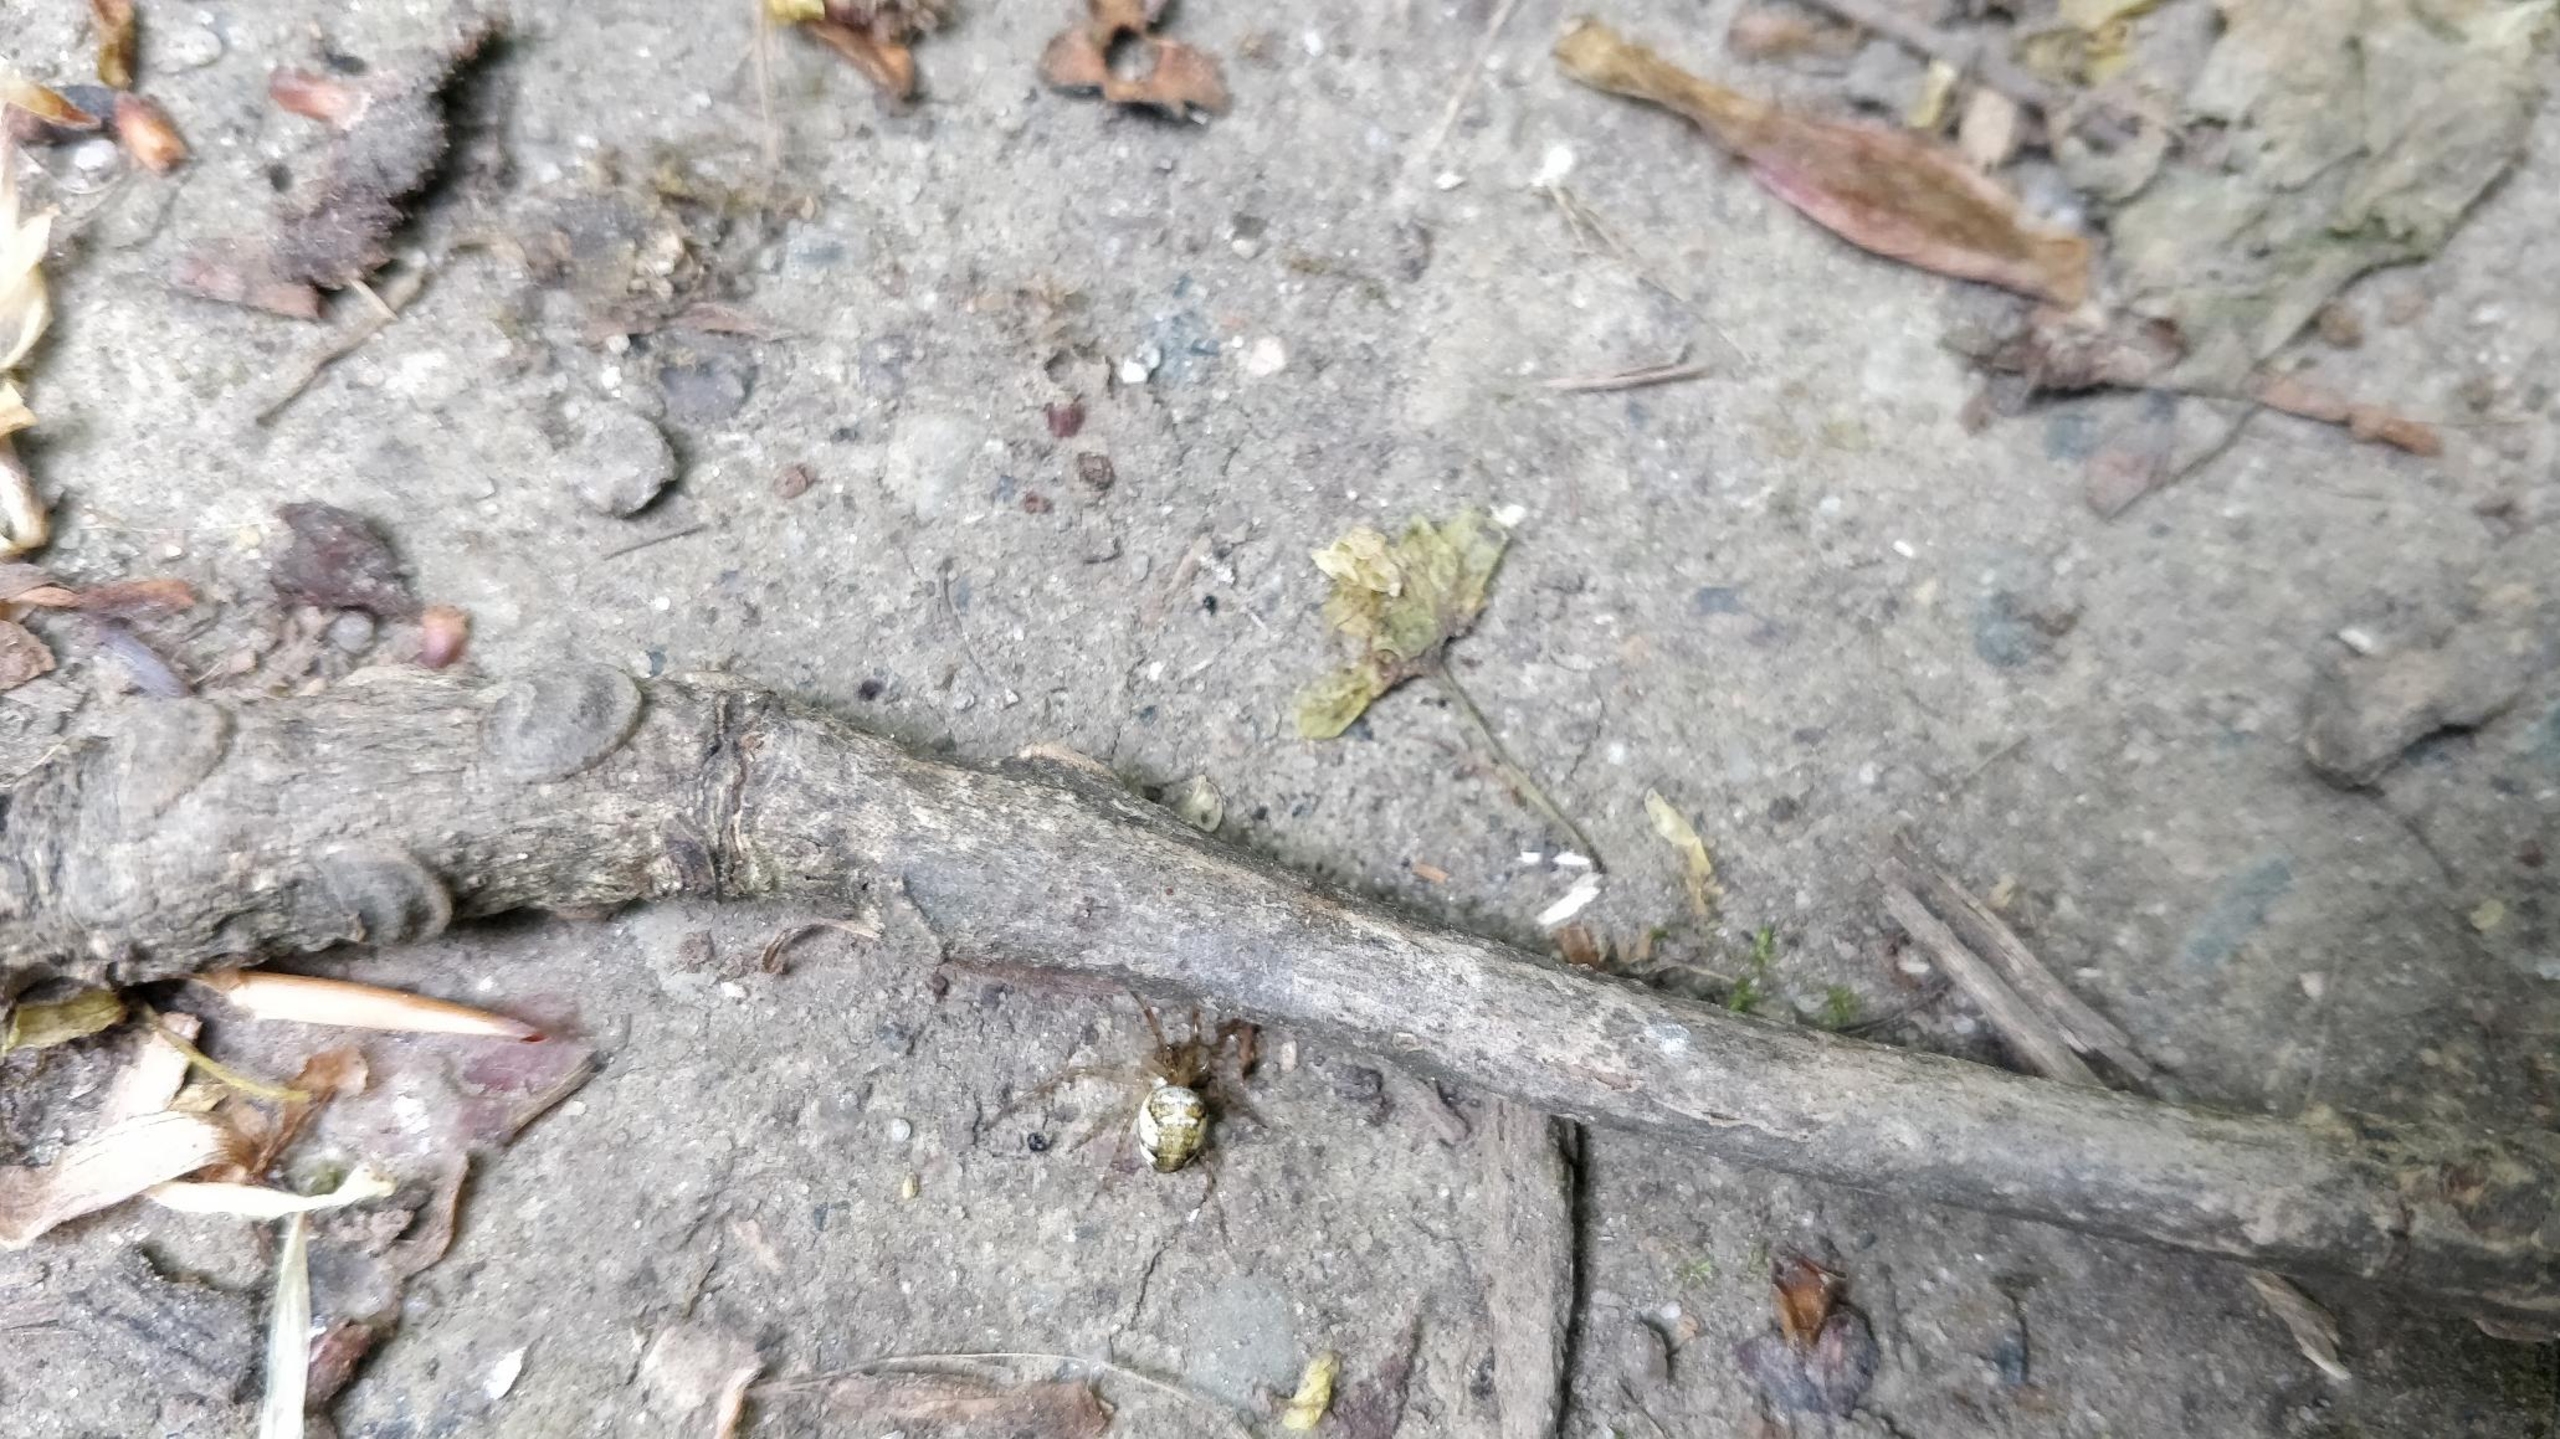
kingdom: Animalia
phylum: Arthropoda
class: Arachnida
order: Araneae
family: Tetragnathidae
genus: Metellina
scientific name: Metellina
